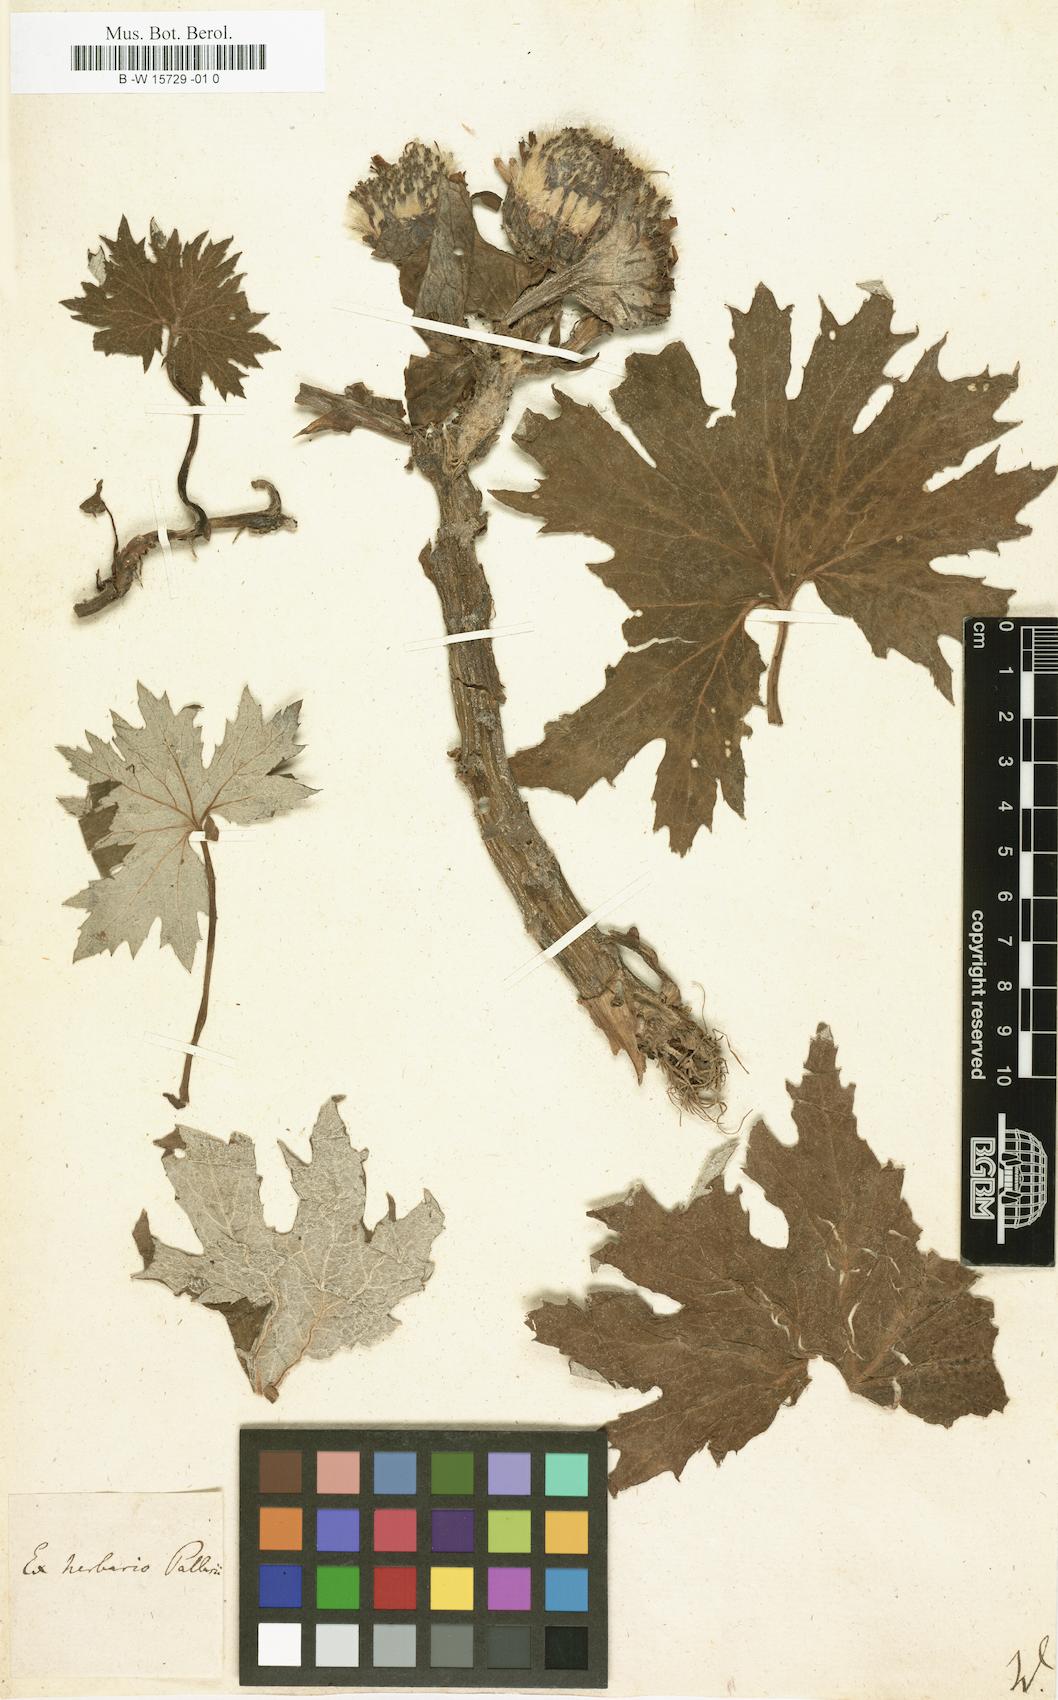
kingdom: Plantae
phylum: Tracheophyta
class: Magnoliopsida
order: Asterales
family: Asteraceae
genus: Tussilago
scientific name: Tussilago
